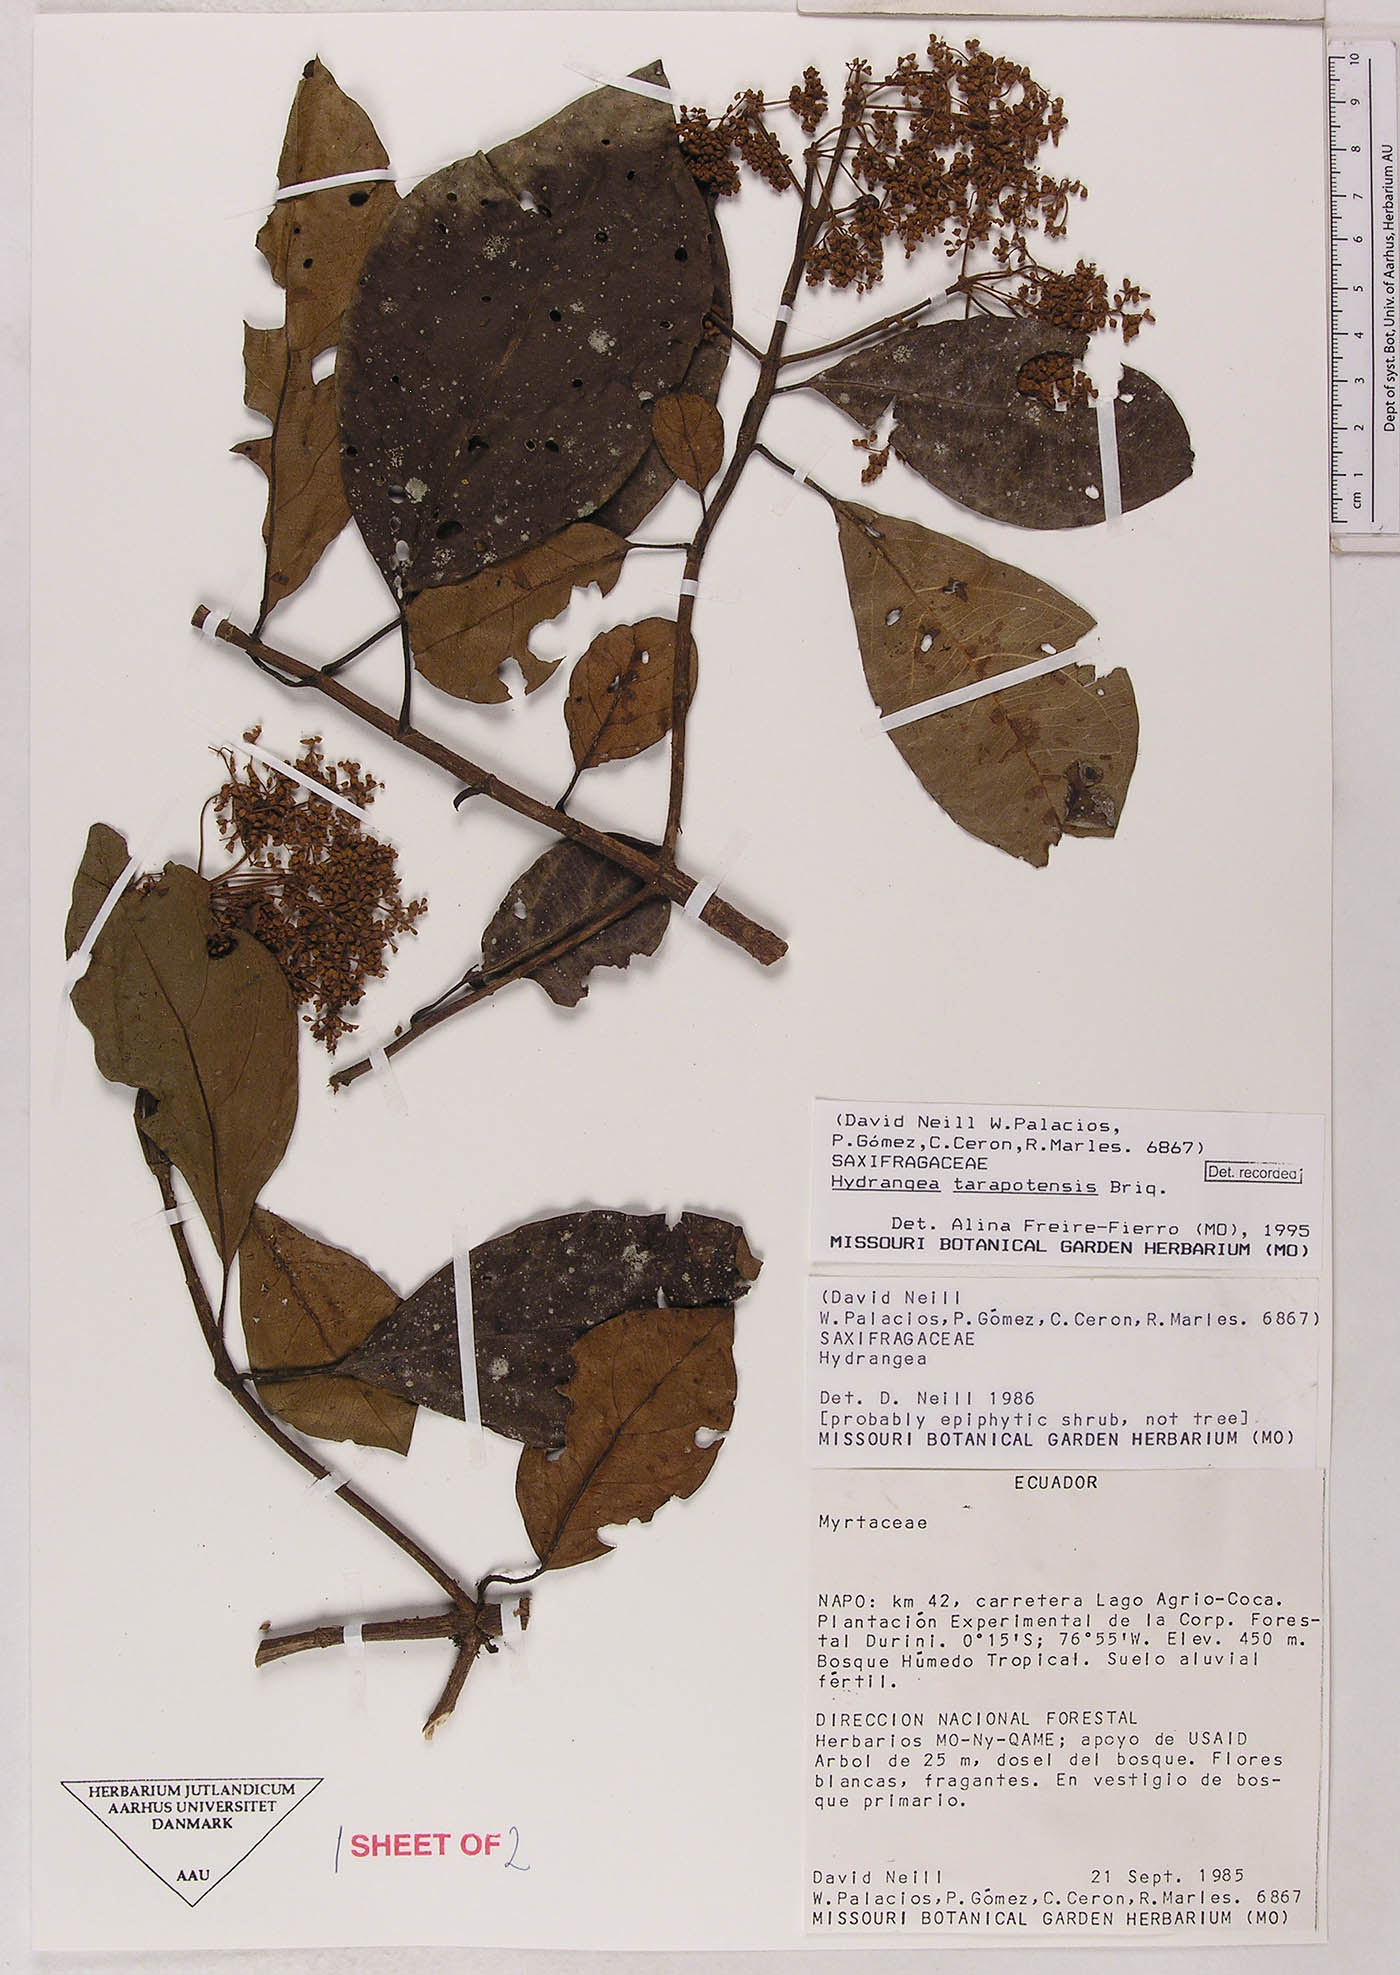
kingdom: Plantae
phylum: Tracheophyta
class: Magnoliopsida
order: Cornales
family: Hydrangeaceae
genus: Hydrangea
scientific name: Hydrangea tarapotensis
